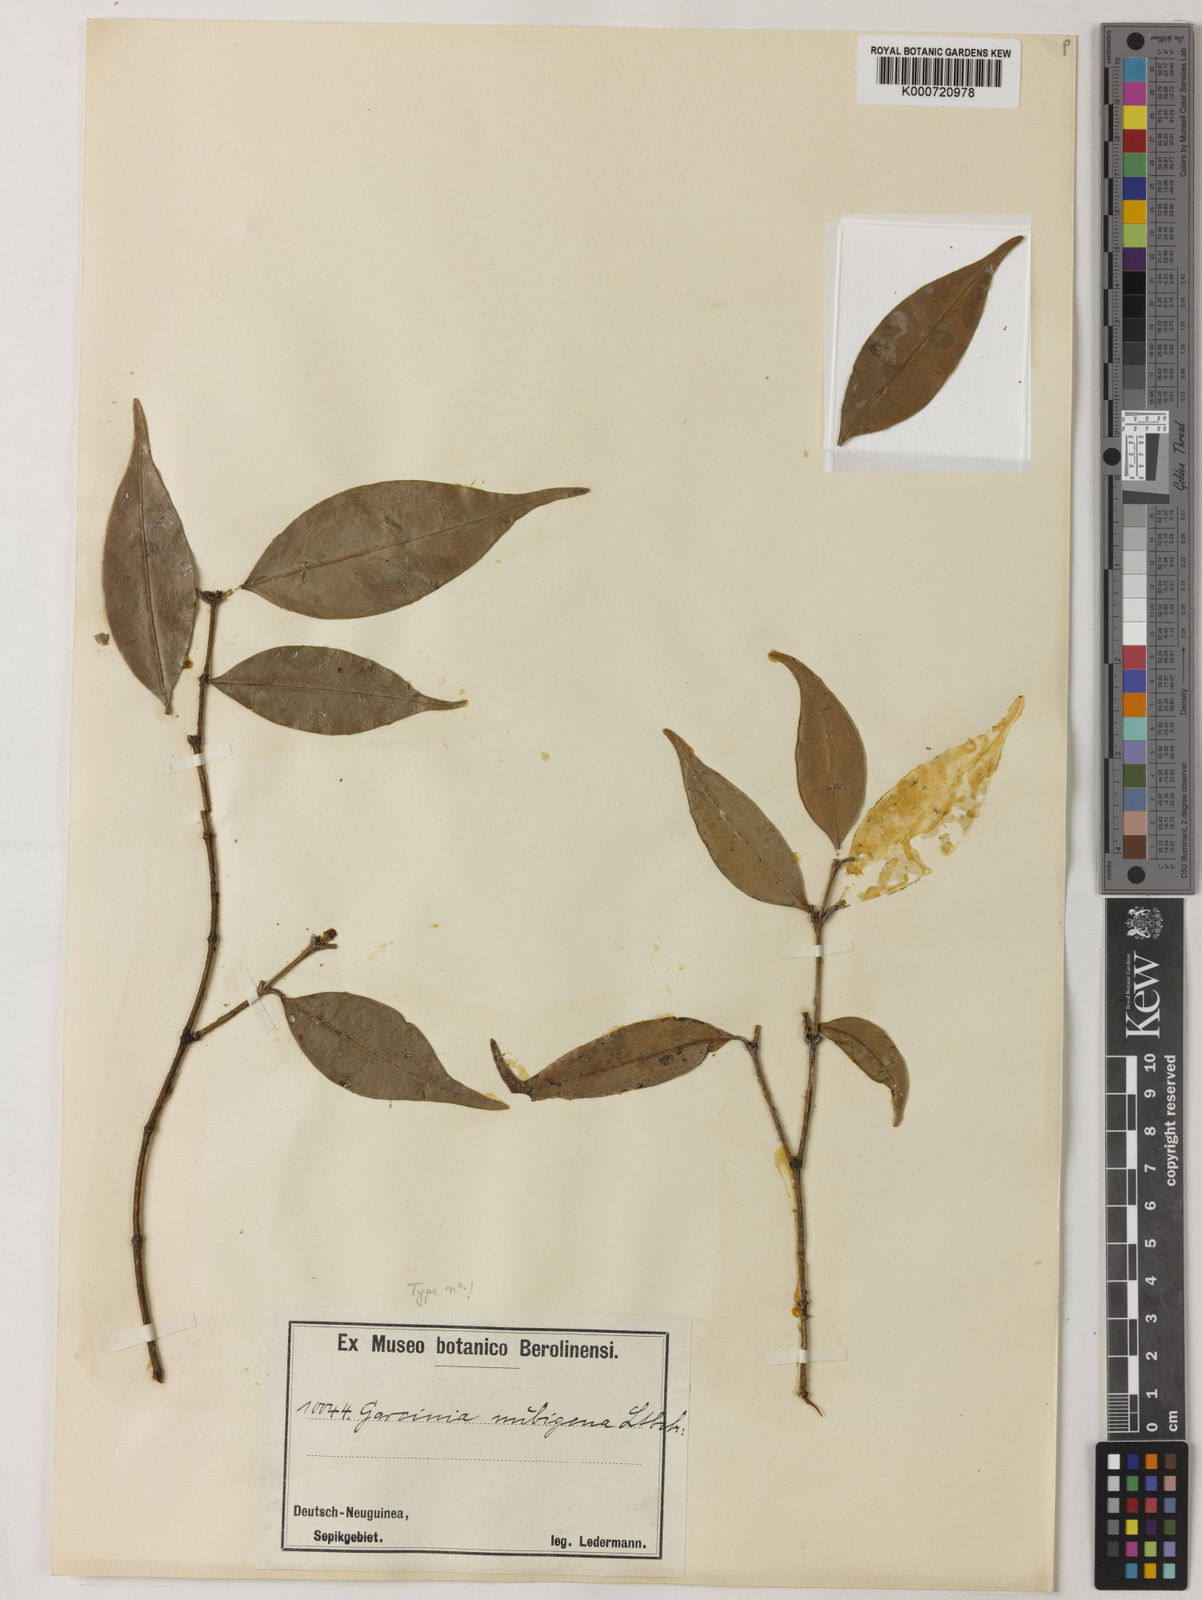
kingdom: Plantae
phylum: Tracheophyta
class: Magnoliopsida
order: Malpighiales
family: Clusiaceae
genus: Garcinia
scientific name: Garcinia nubigena
